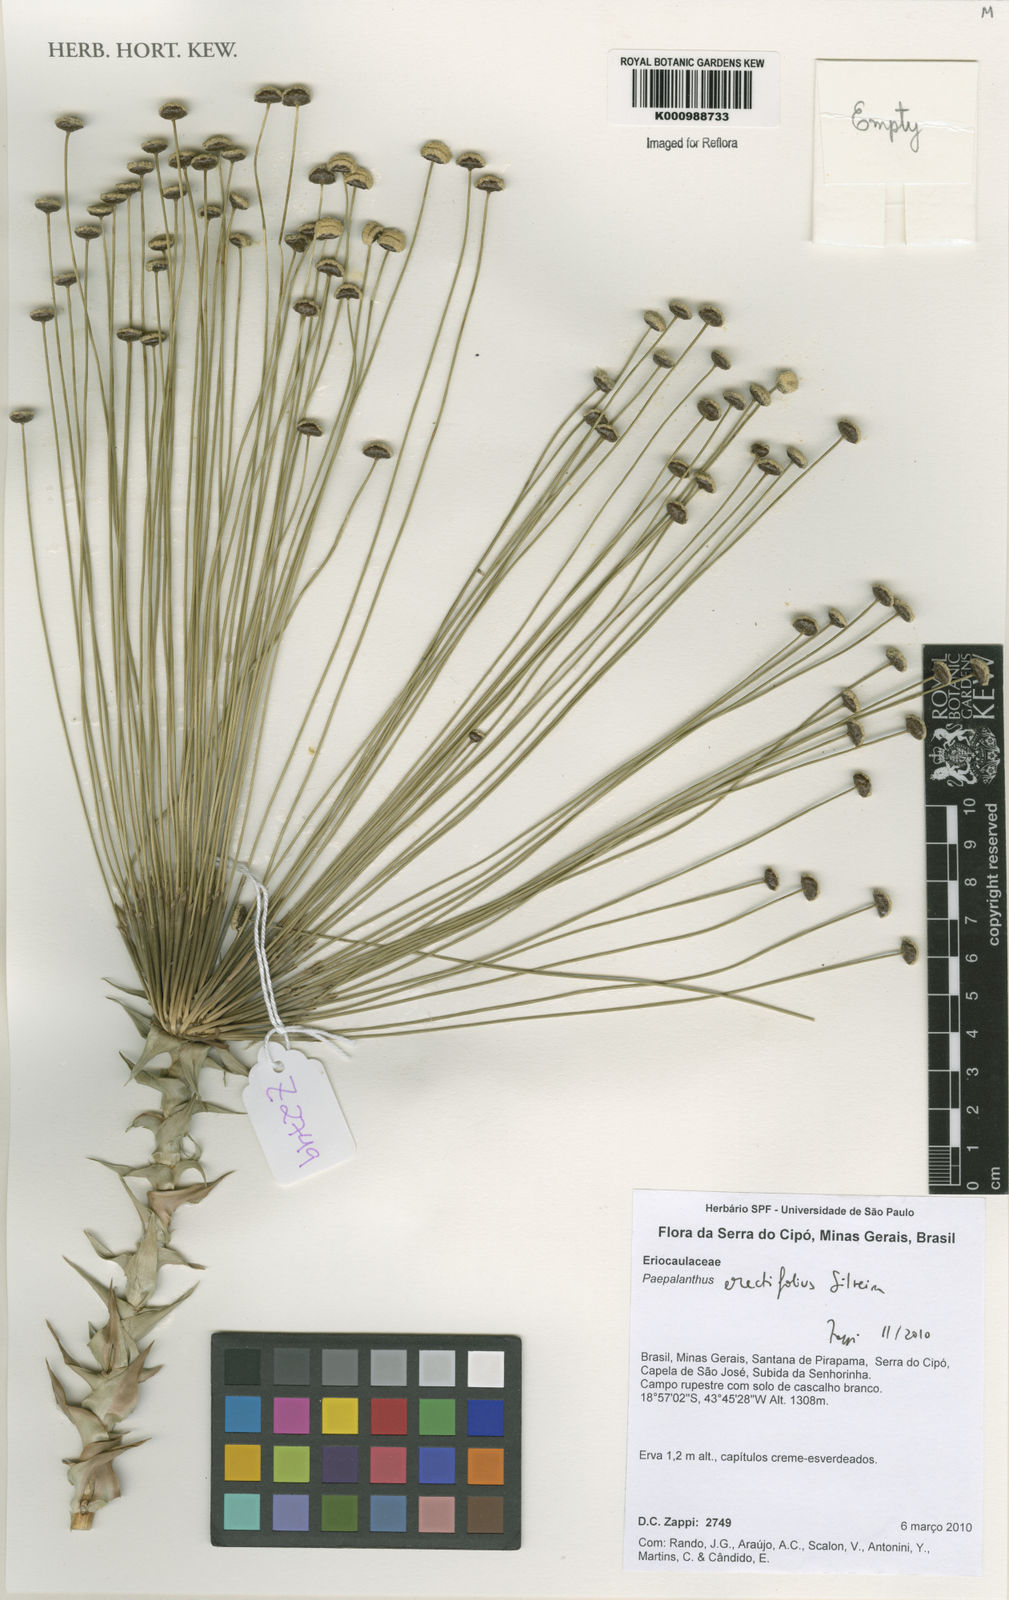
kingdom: Plantae
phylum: Tracheophyta
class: Liliopsida
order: Poales
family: Eriocaulaceae
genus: Paepalanthus
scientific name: Paepalanthus erectifolius
